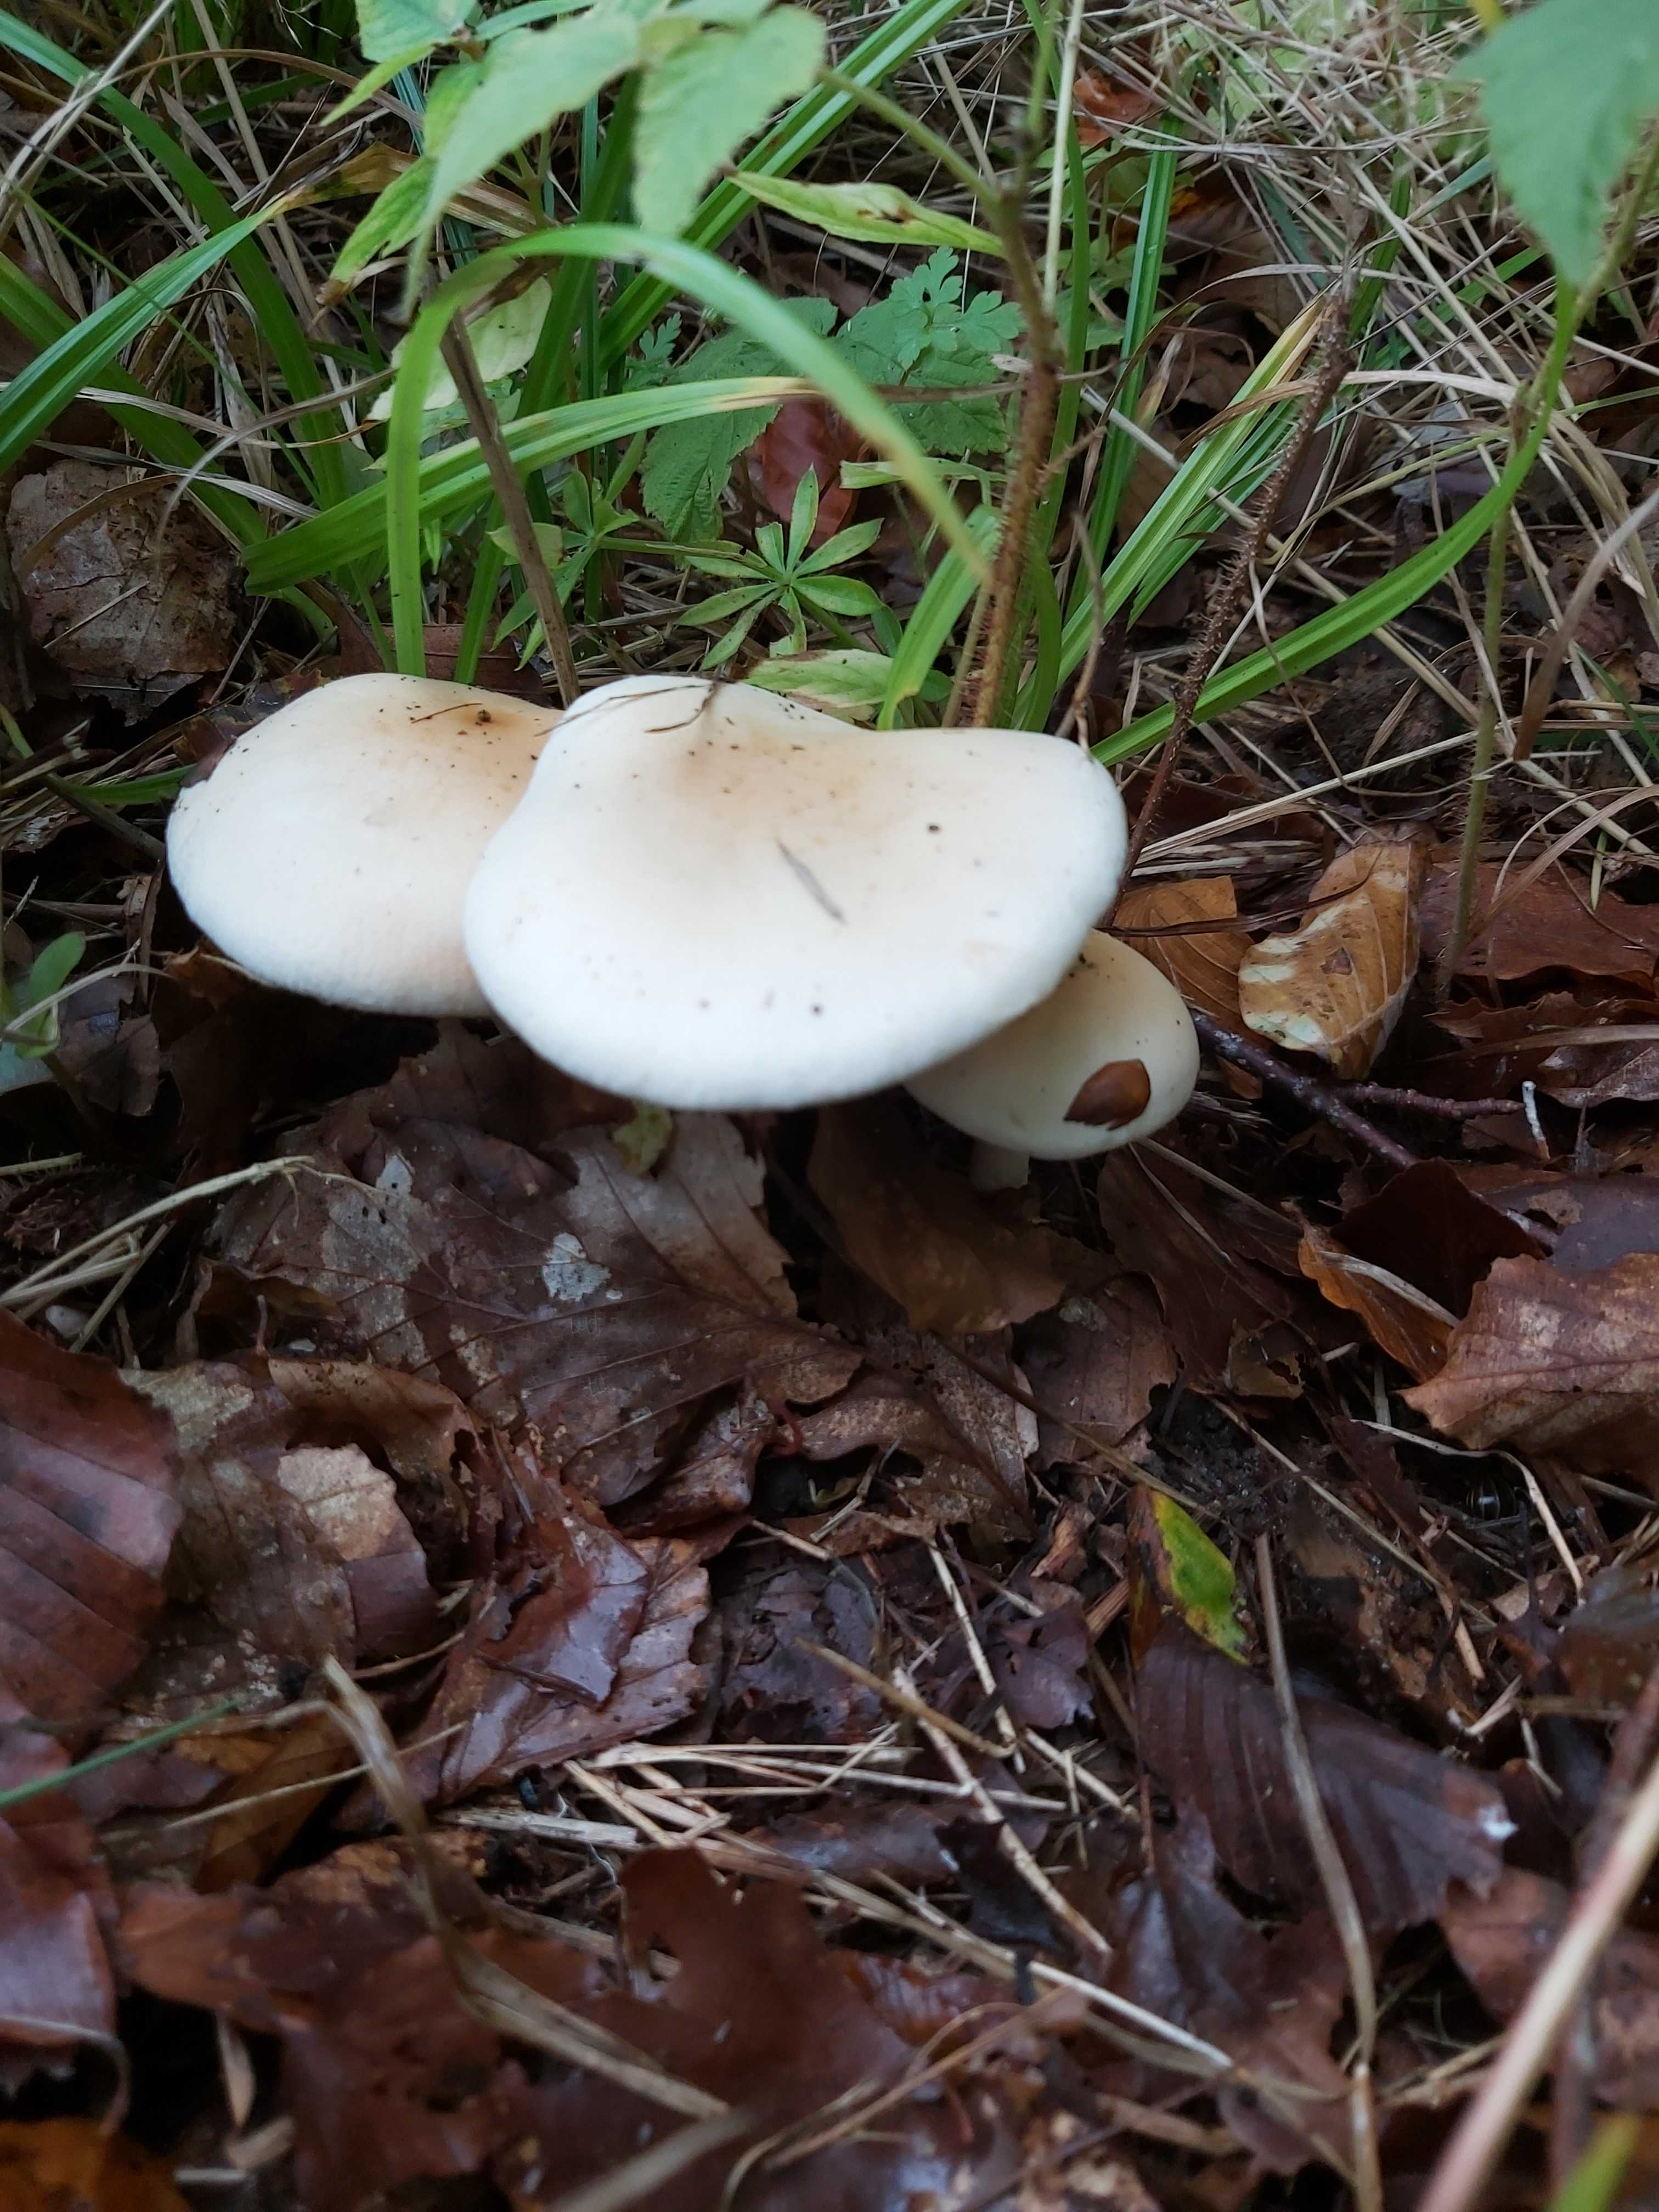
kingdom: Fungi
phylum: Basidiomycota
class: Agaricomycetes
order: Agaricales
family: Hymenogastraceae
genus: Hebeloma
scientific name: Hebeloma
